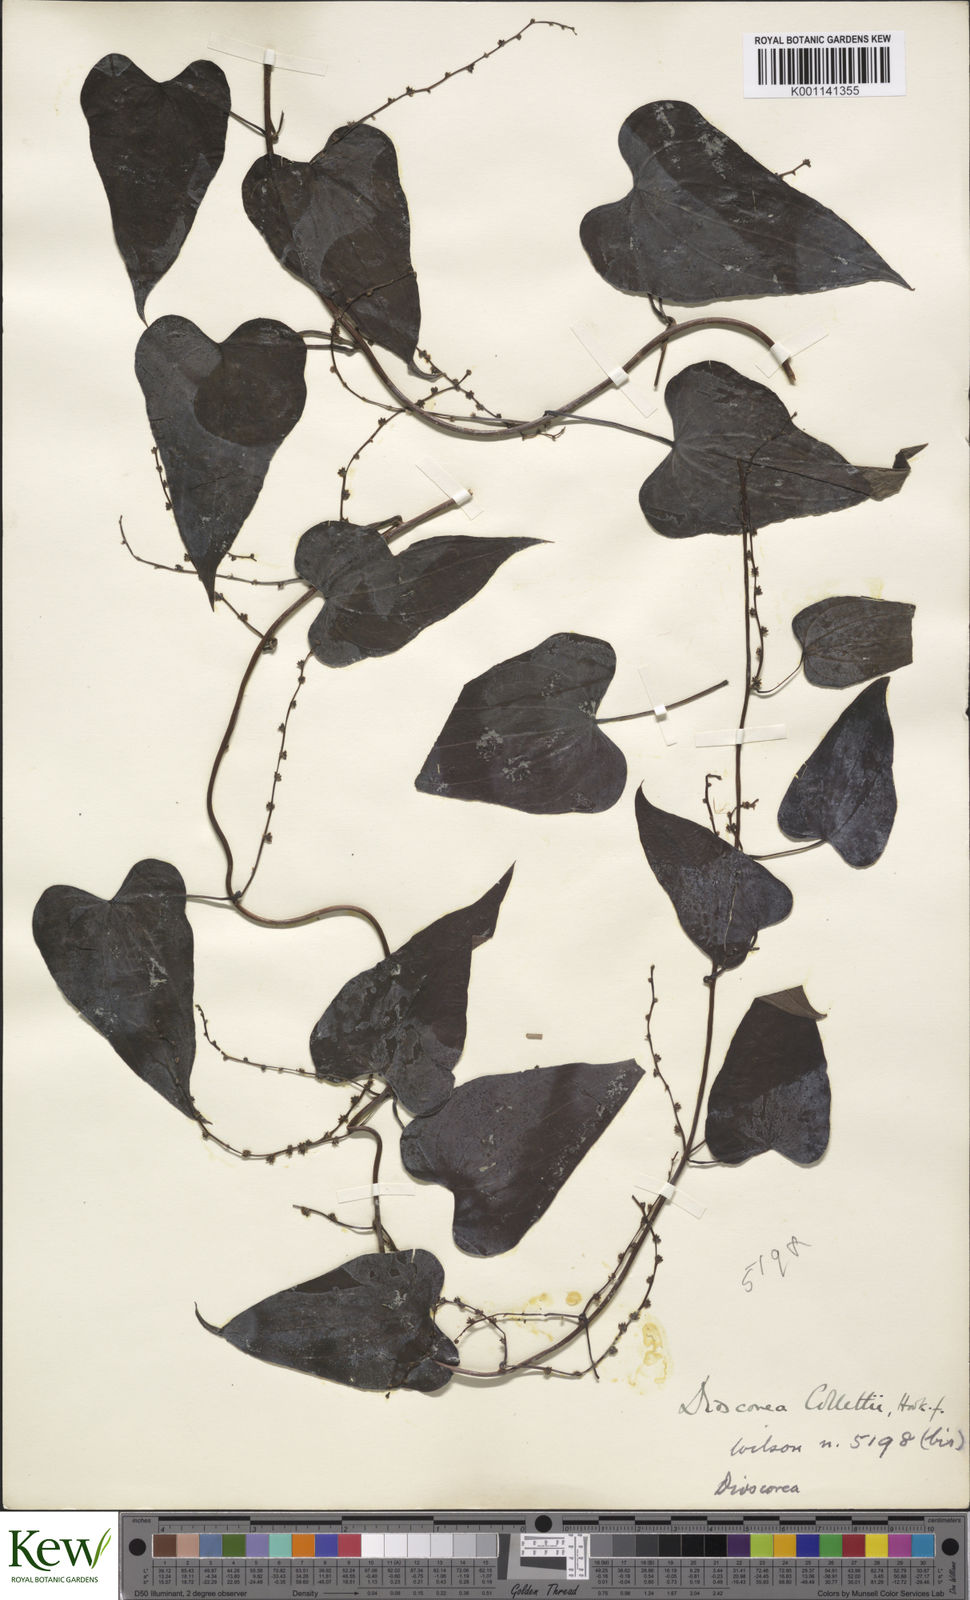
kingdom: Plantae
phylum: Tracheophyta
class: Liliopsida
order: Dioscoreales
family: Dioscoreaceae
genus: Dioscorea
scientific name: Dioscorea collettii
